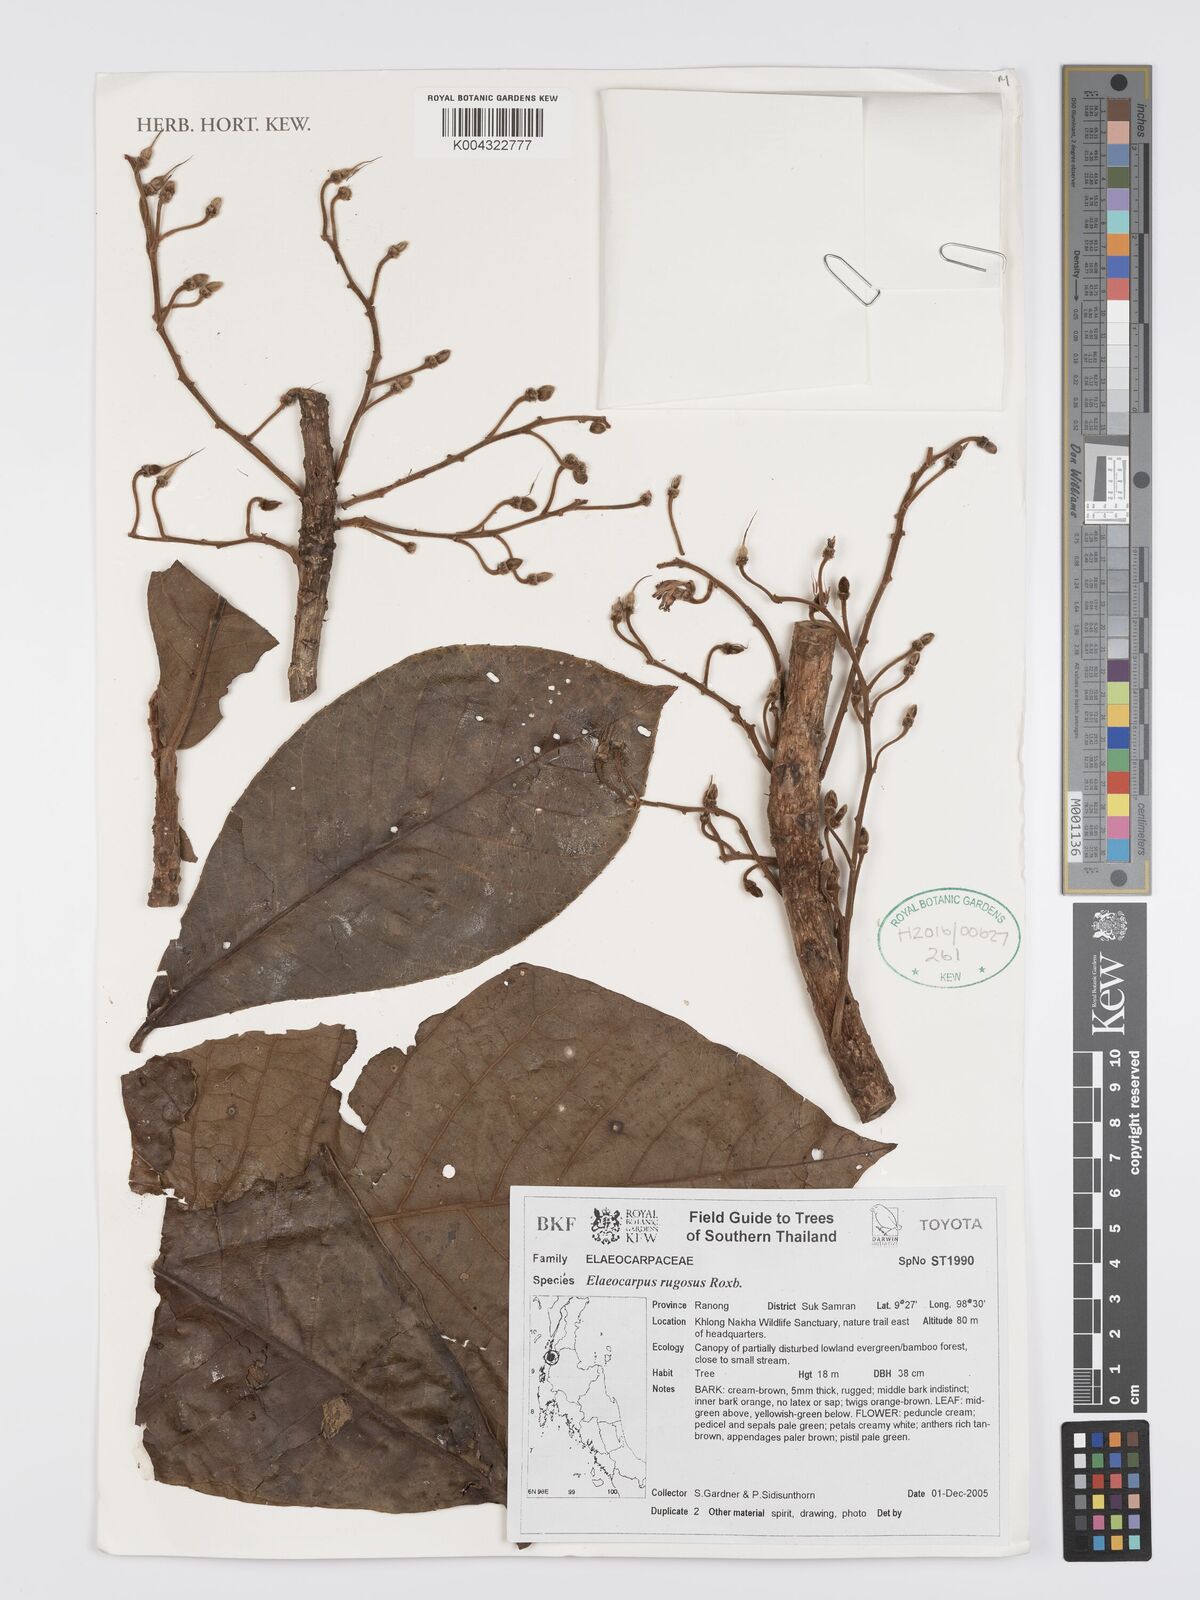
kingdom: Plantae
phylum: Tracheophyta
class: Magnoliopsida
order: Oxalidales
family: Elaeocarpaceae
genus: Elaeocarpus
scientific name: Elaeocarpus rugosus
